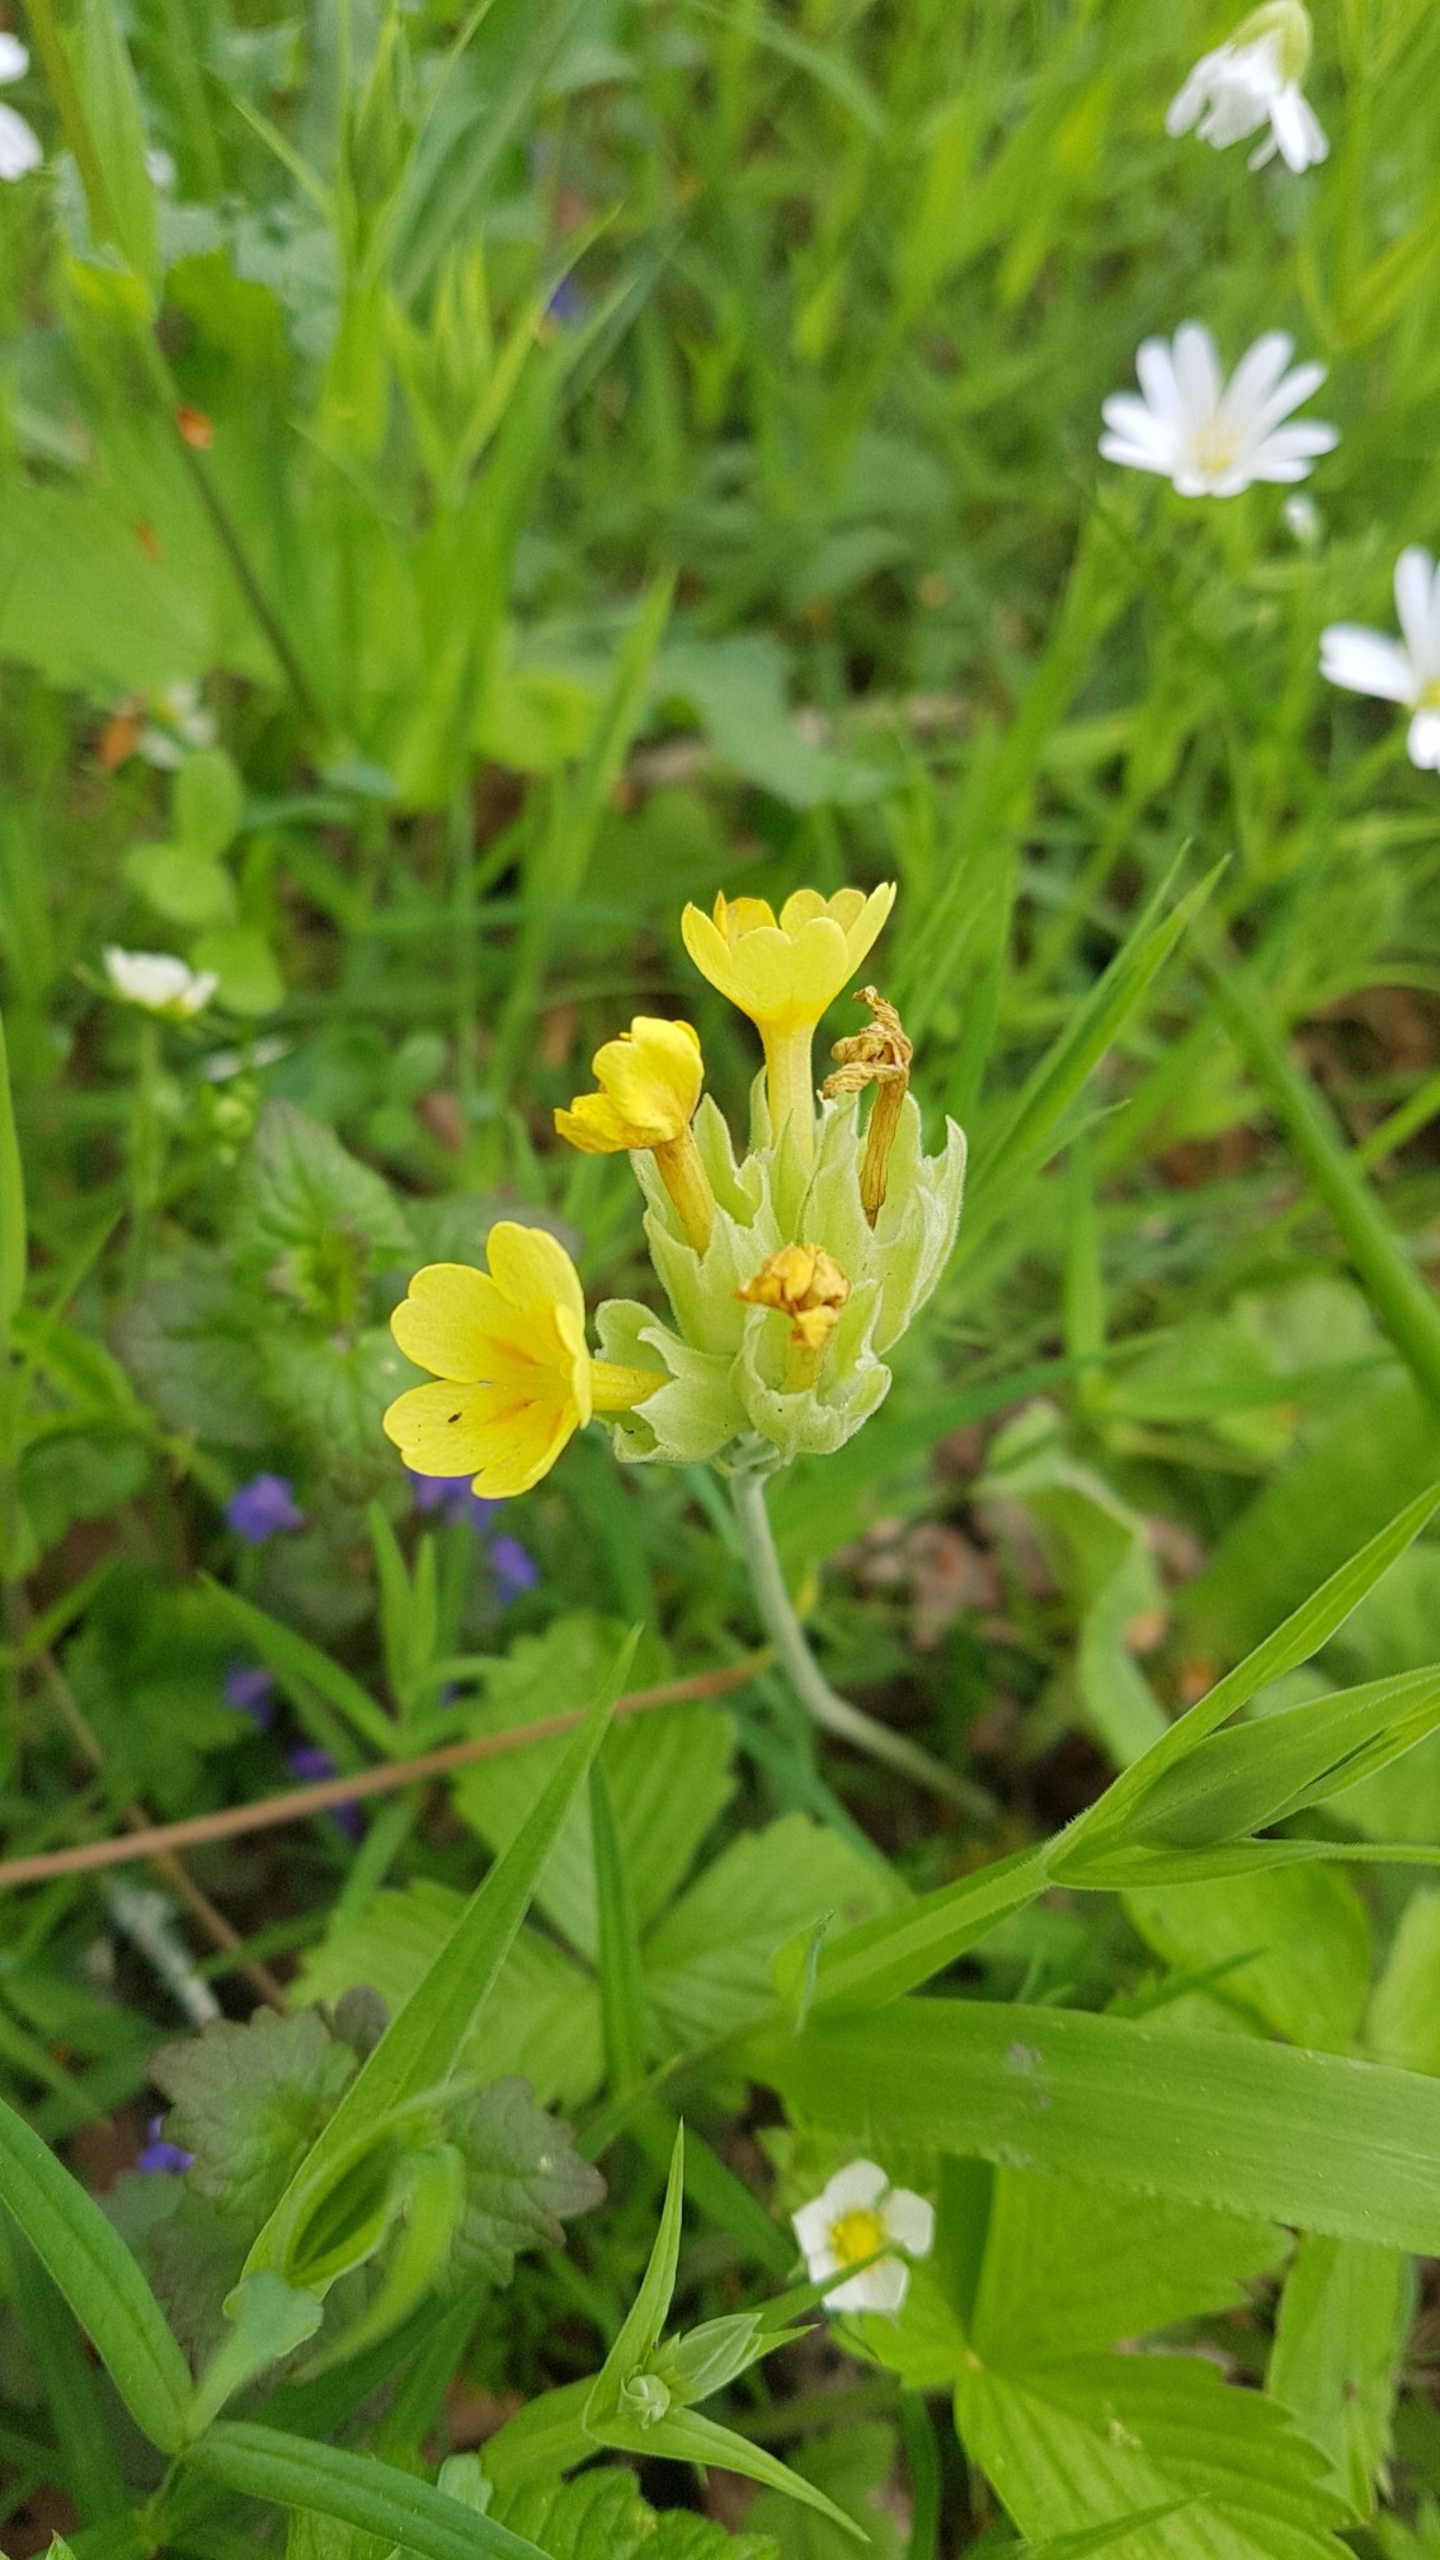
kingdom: Plantae
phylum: Tracheophyta
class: Magnoliopsida
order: Ericales
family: Primulaceae
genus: Primula
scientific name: Primula veris
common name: Hulkravet kodriver
